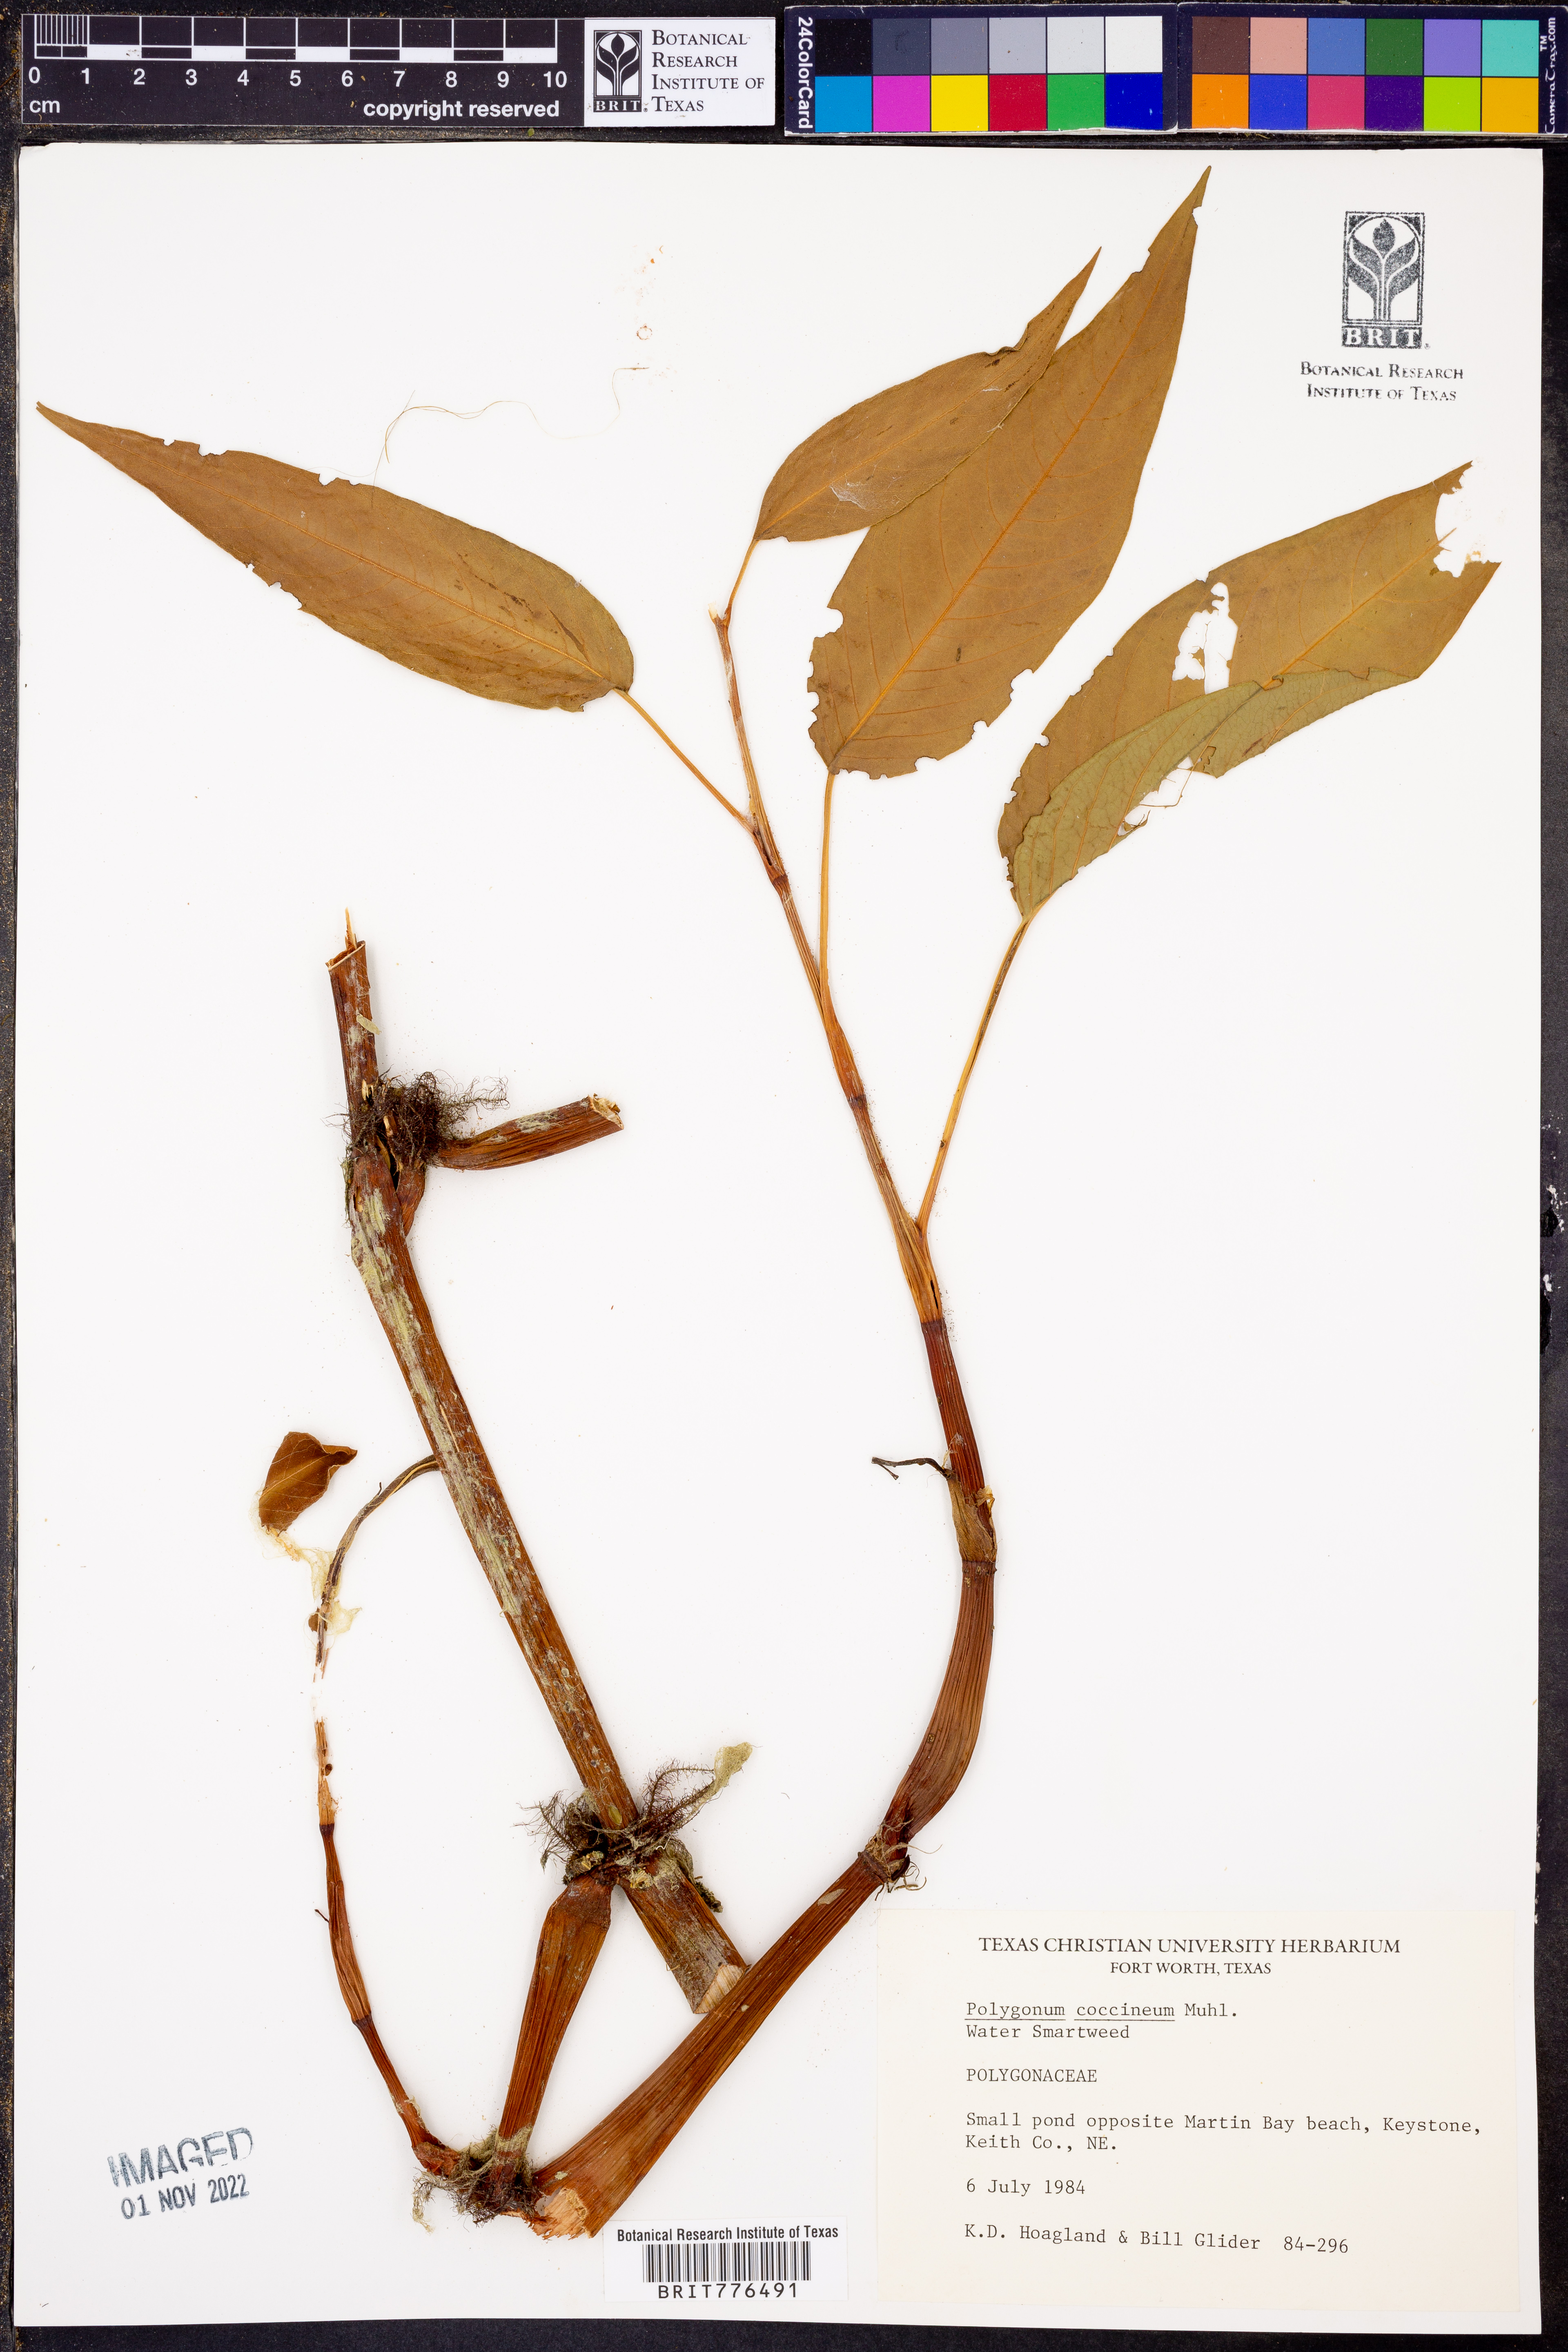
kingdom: Plantae
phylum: Tracheophyta
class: Magnoliopsida
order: Caryophyllales
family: Polygonaceae
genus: Persicaria
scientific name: Persicaria amphibia
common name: Amphibious bistort
